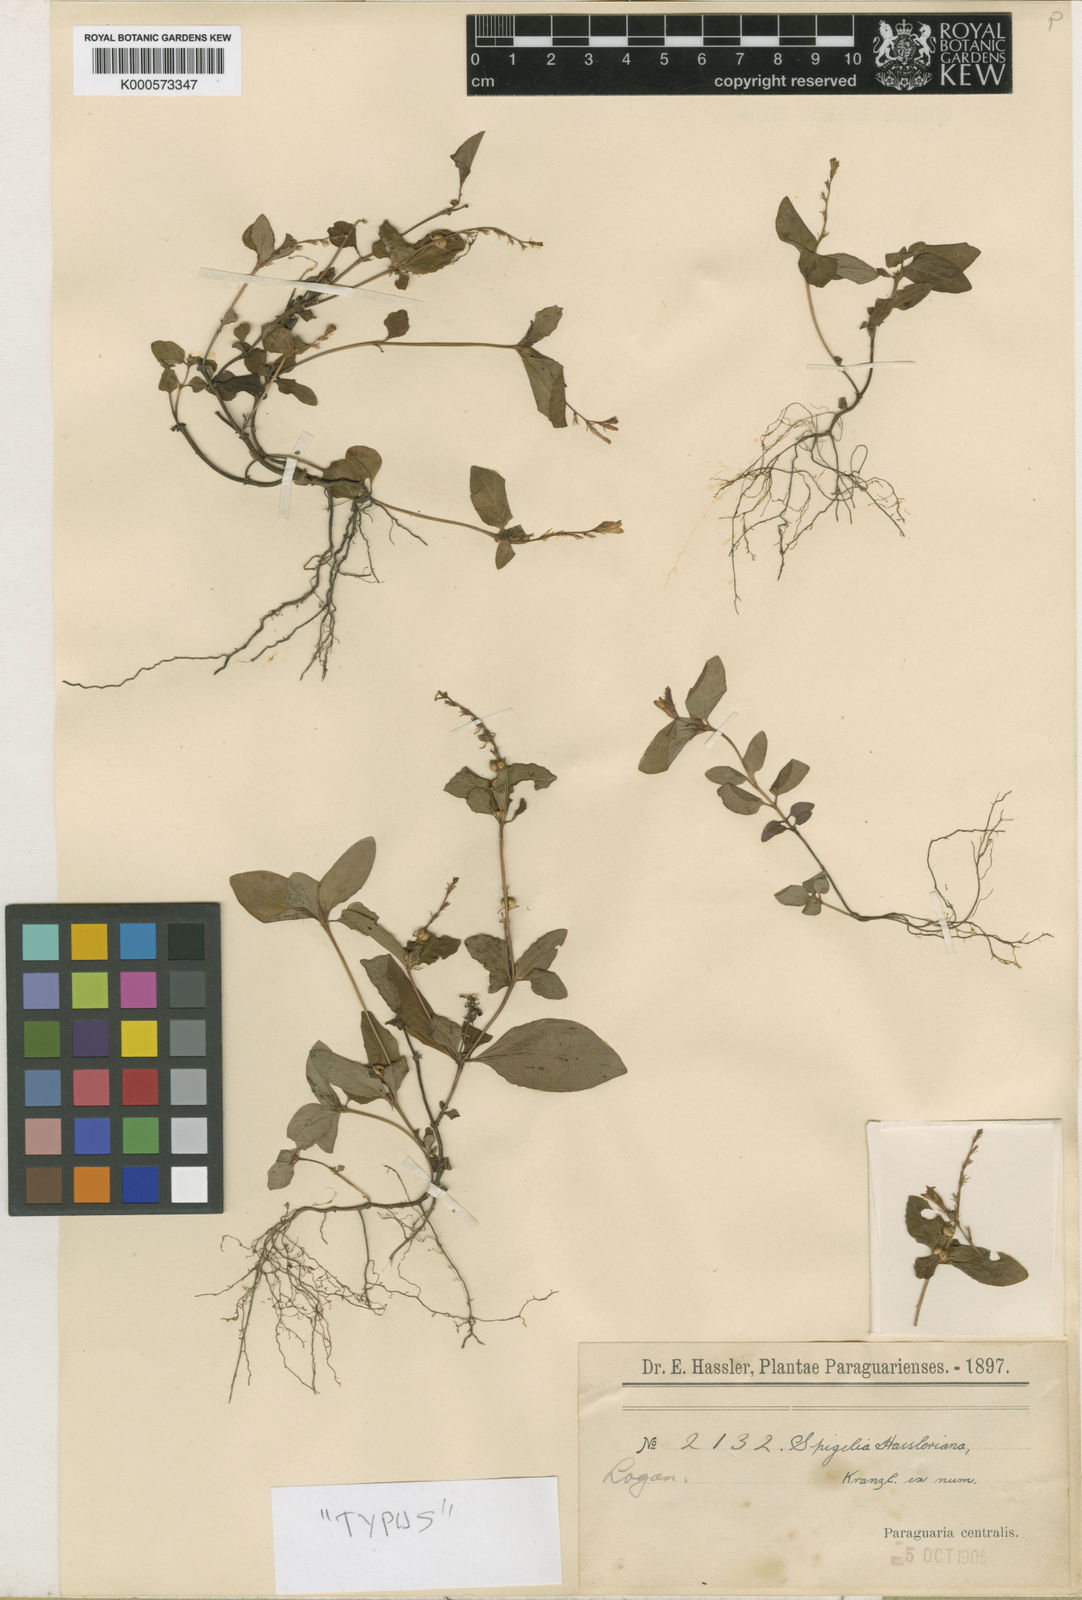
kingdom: Plantae
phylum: Tracheophyta
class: Magnoliopsida
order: Gentianales
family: Loganiaceae
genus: Spigelia
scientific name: Spigelia humboldtiana
